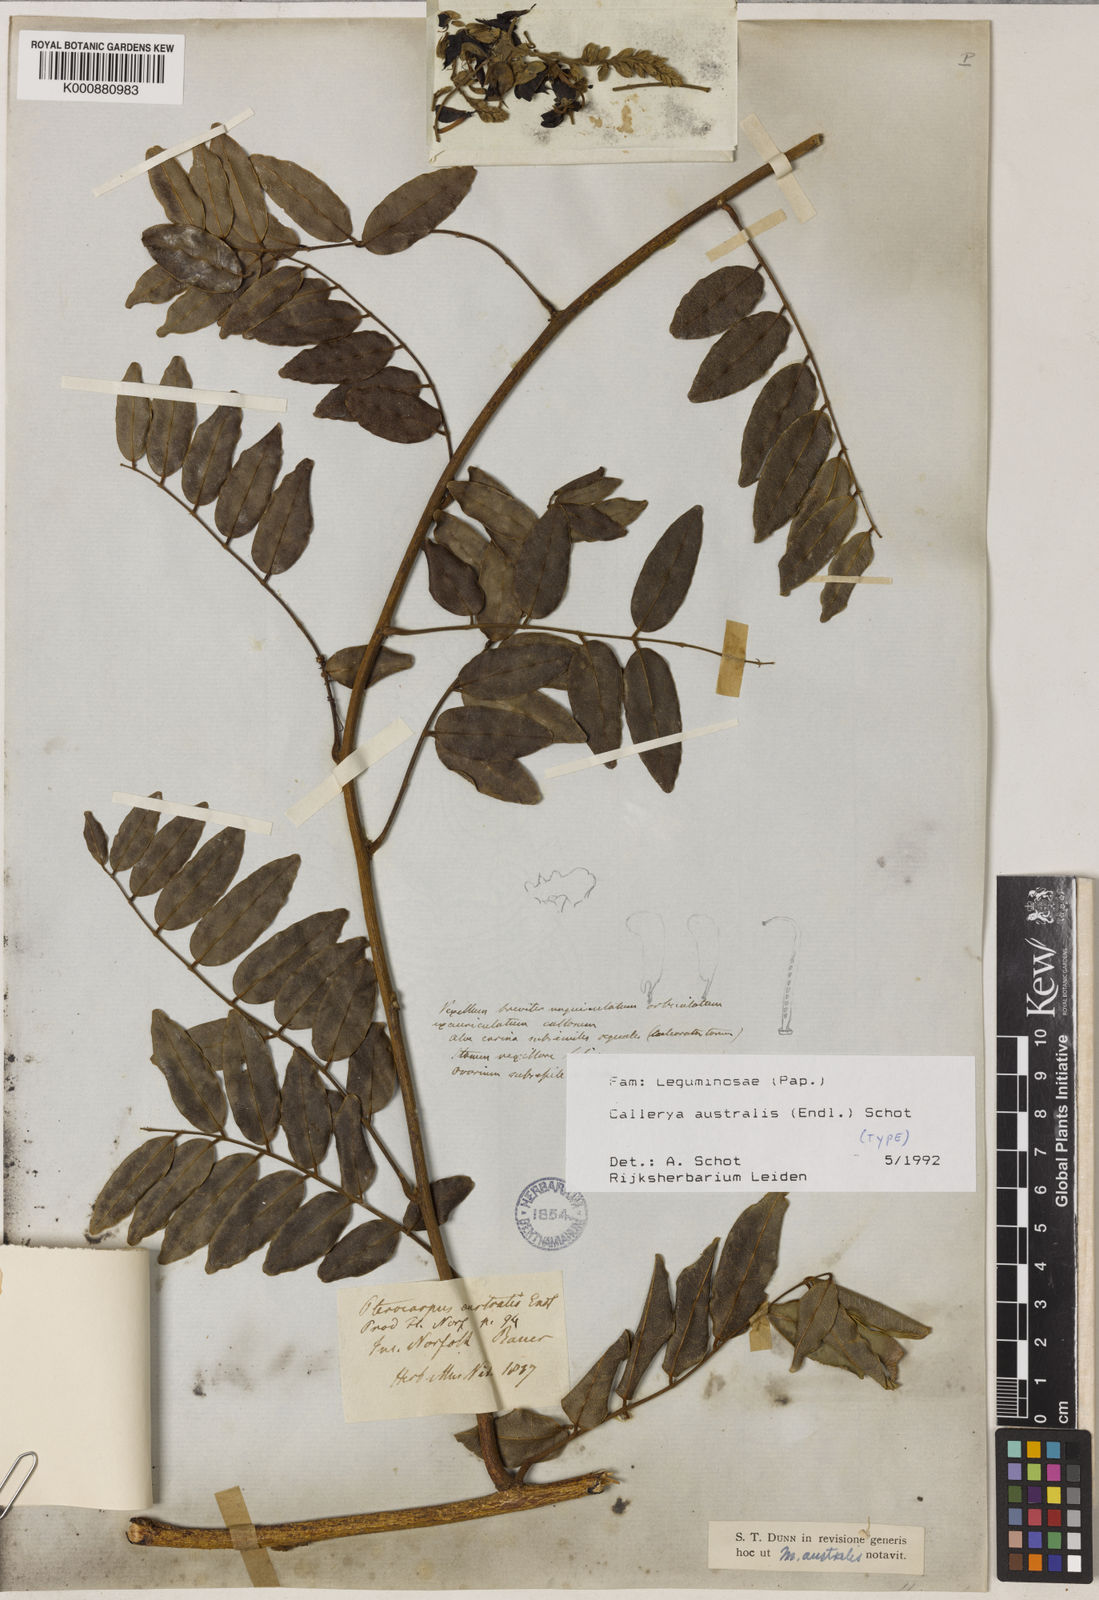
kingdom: Plantae
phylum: Tracheophyta
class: Magnoliopsida
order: Fabales
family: Fabaceae
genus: Austrocallerya
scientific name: Austrocallerya australis
